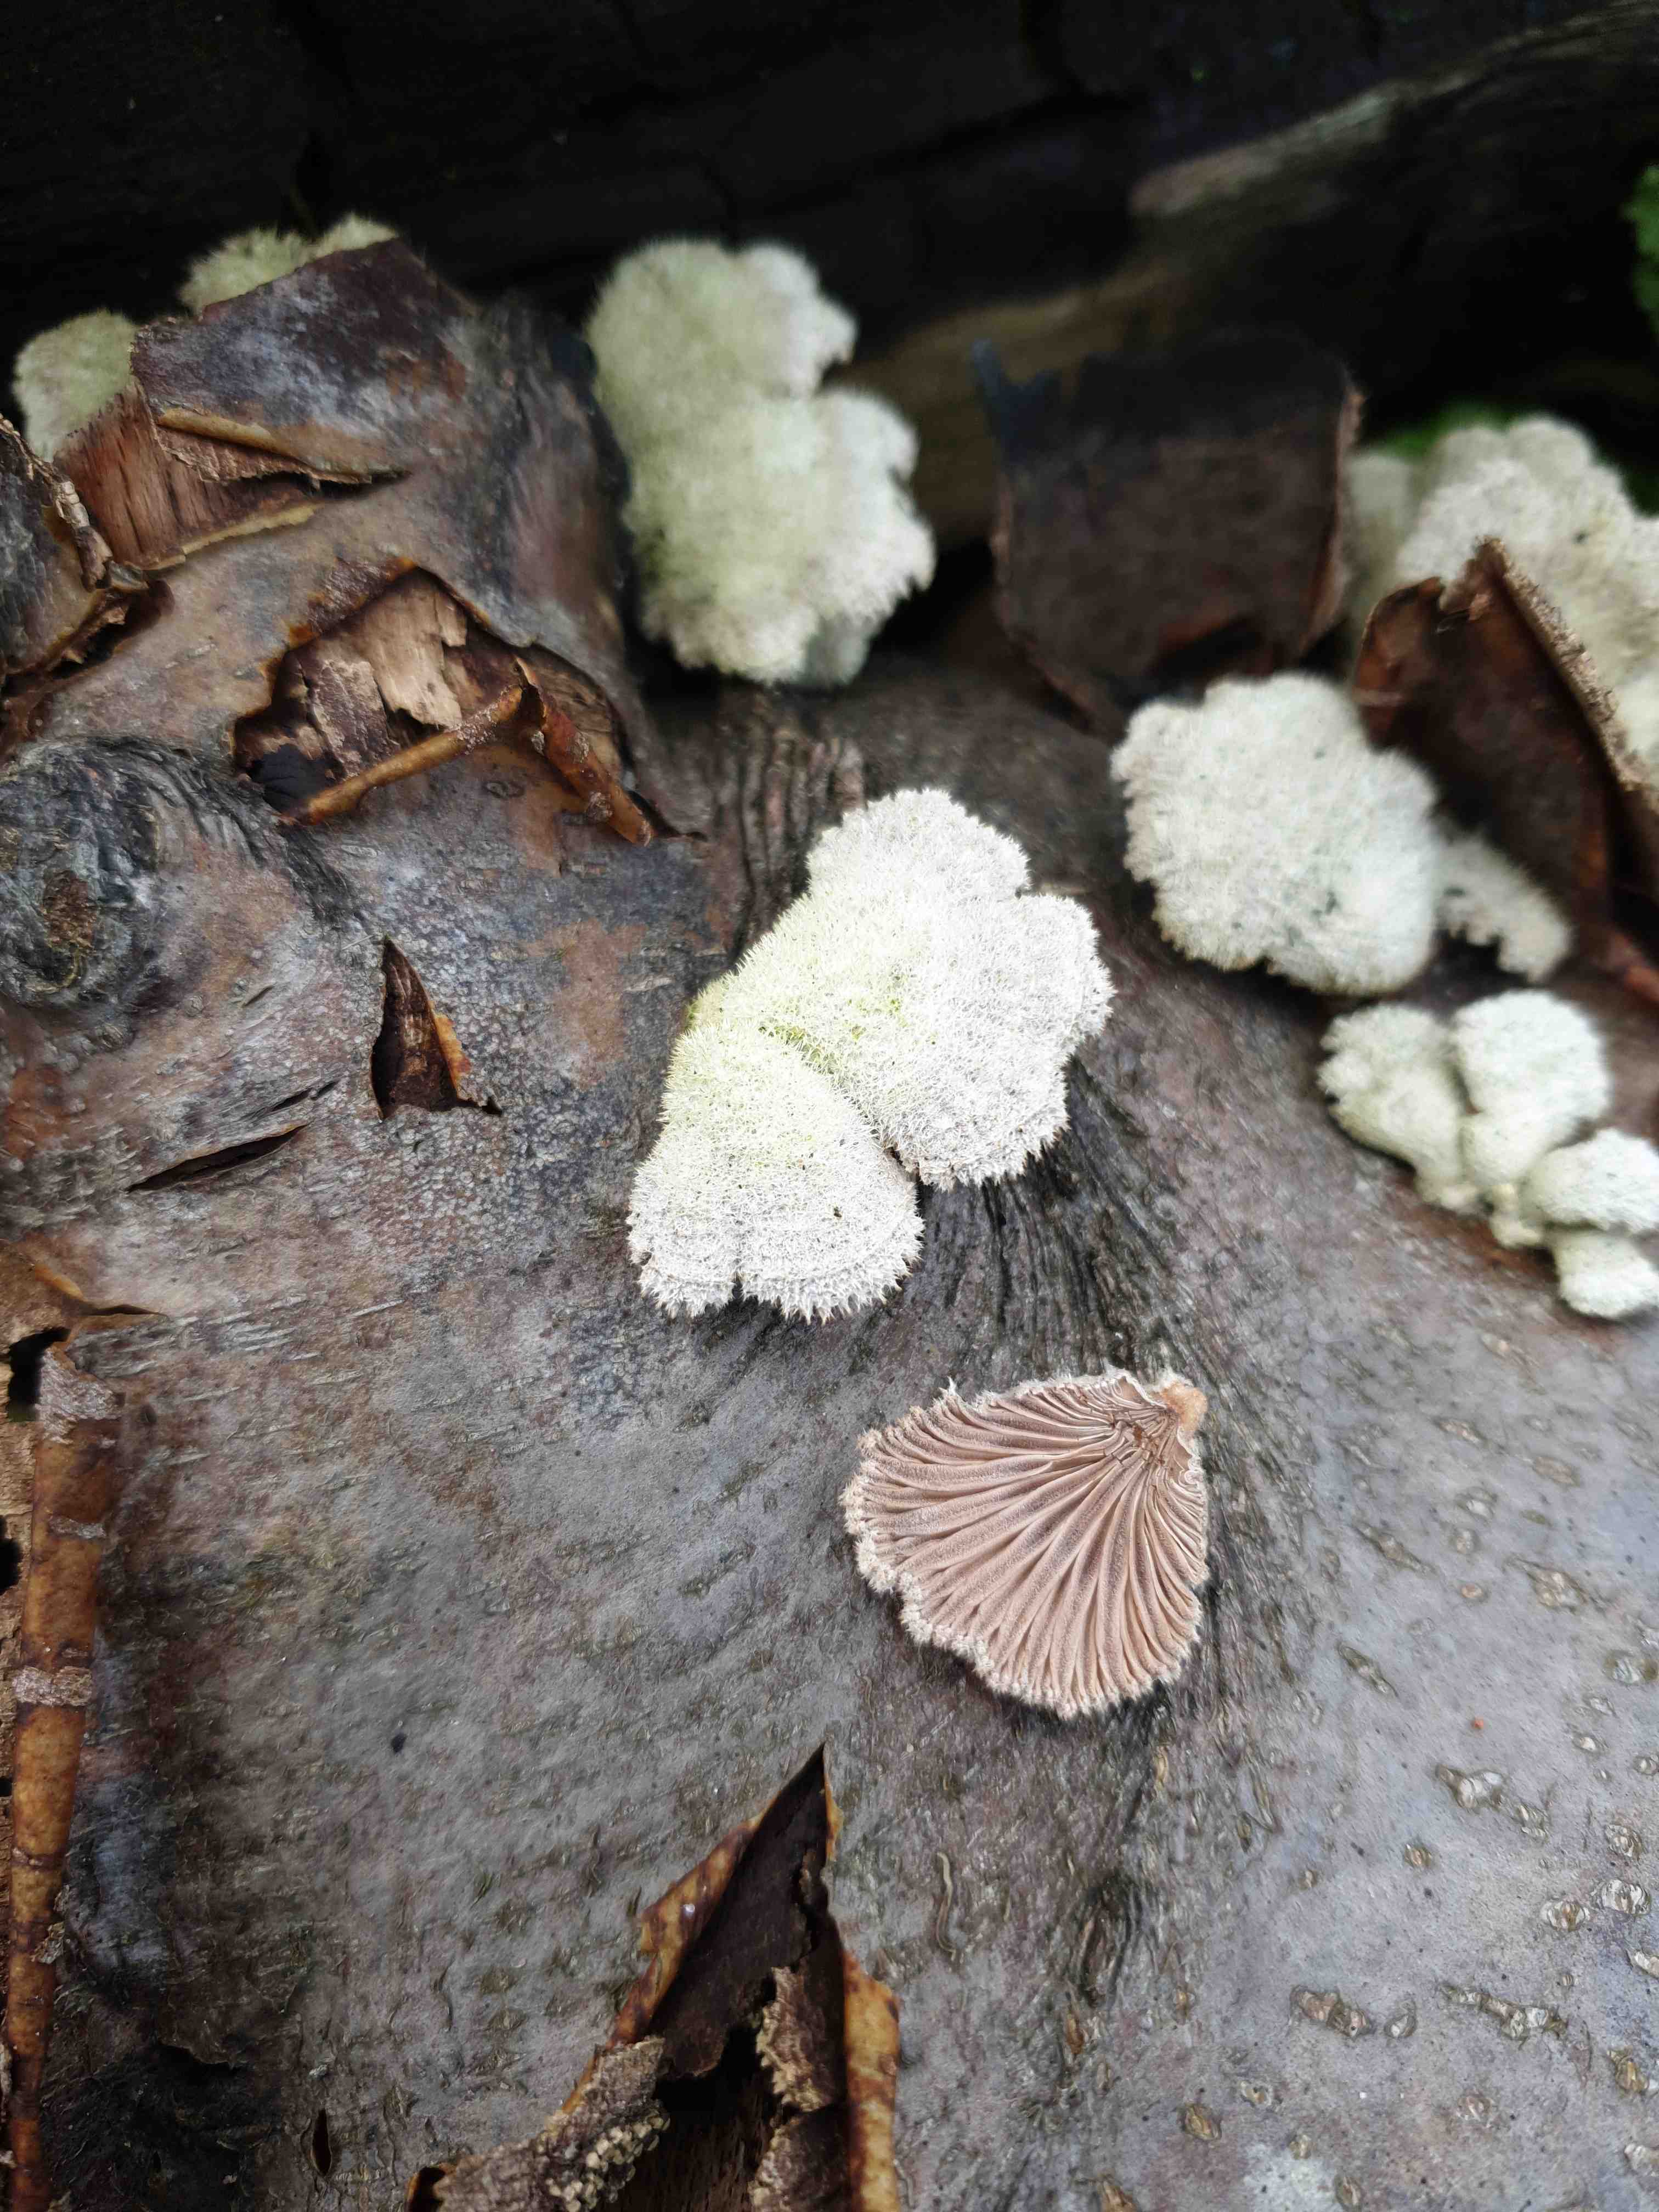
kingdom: Fungi
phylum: Basidiomycota
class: Agaricomycetes
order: Agaricales
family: Schizophyllaceae
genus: Schizophyllum
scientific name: Schizophyllum commune
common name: kløvblad
